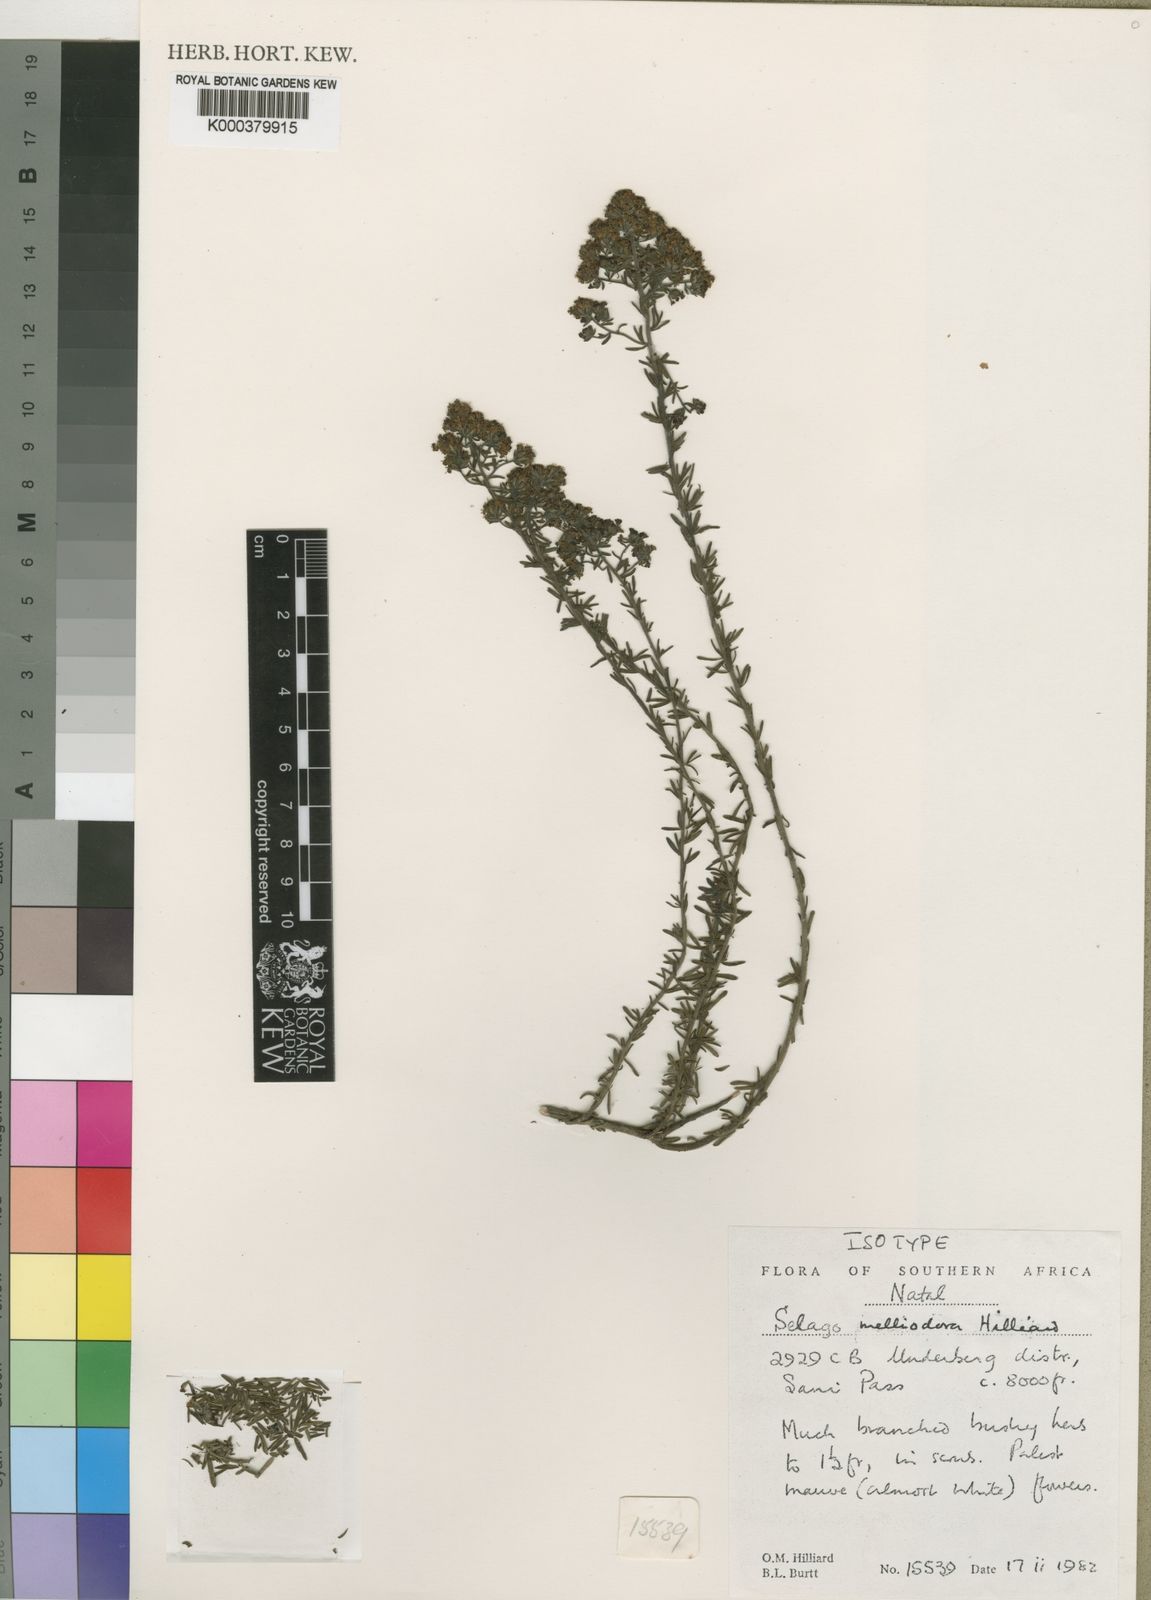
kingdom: Plantae
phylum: Tracheophyta
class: Magnoliopsida
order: Lamiales
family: Scrophulariaceae
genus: Selago
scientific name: Selago melliodora
